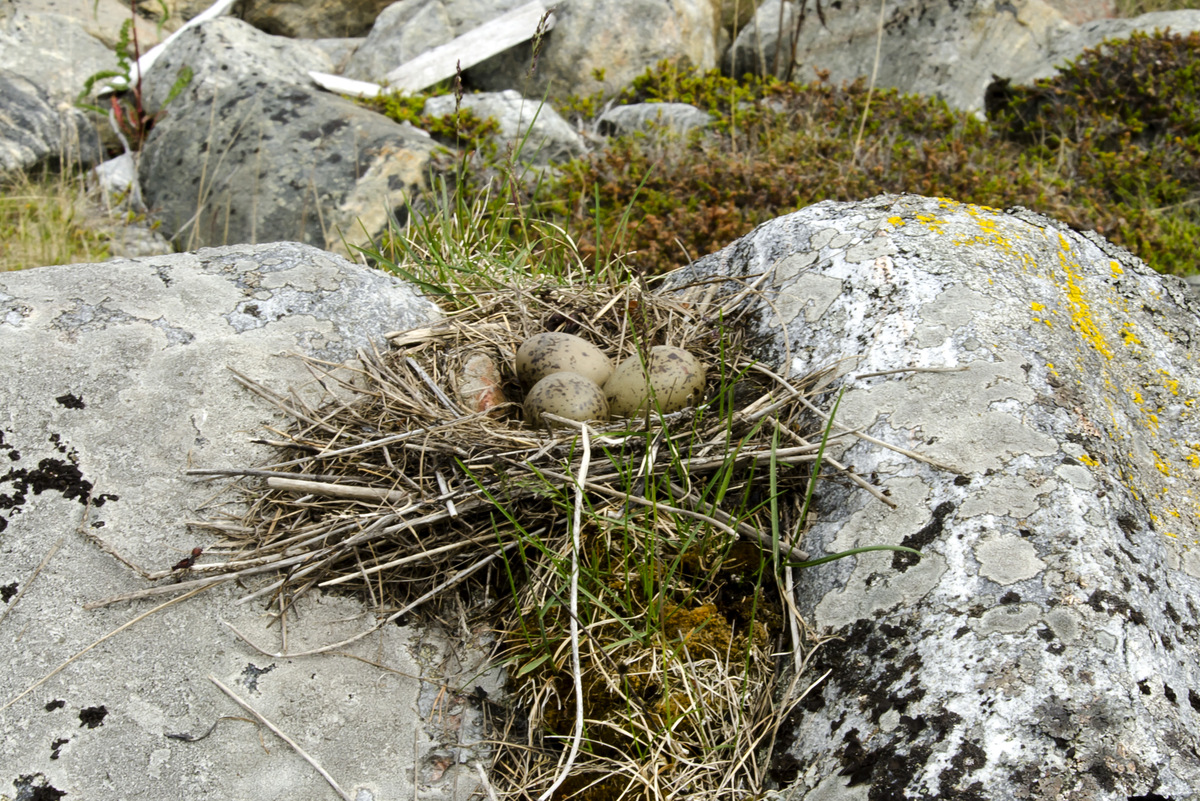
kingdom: Animalia
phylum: Chordata
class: Aves
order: Charadriiformes
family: Laridae
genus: Larus
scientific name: Larus canus
